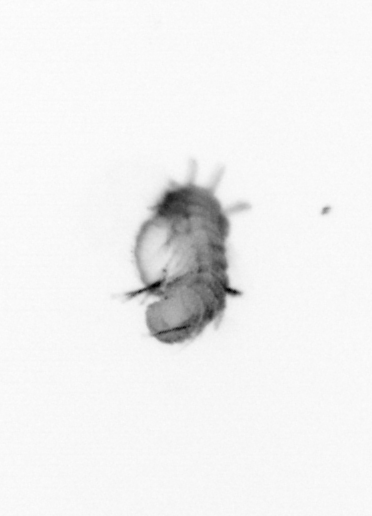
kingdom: Animalia
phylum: Annelida
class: Polychaeta
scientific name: Polychaeta
